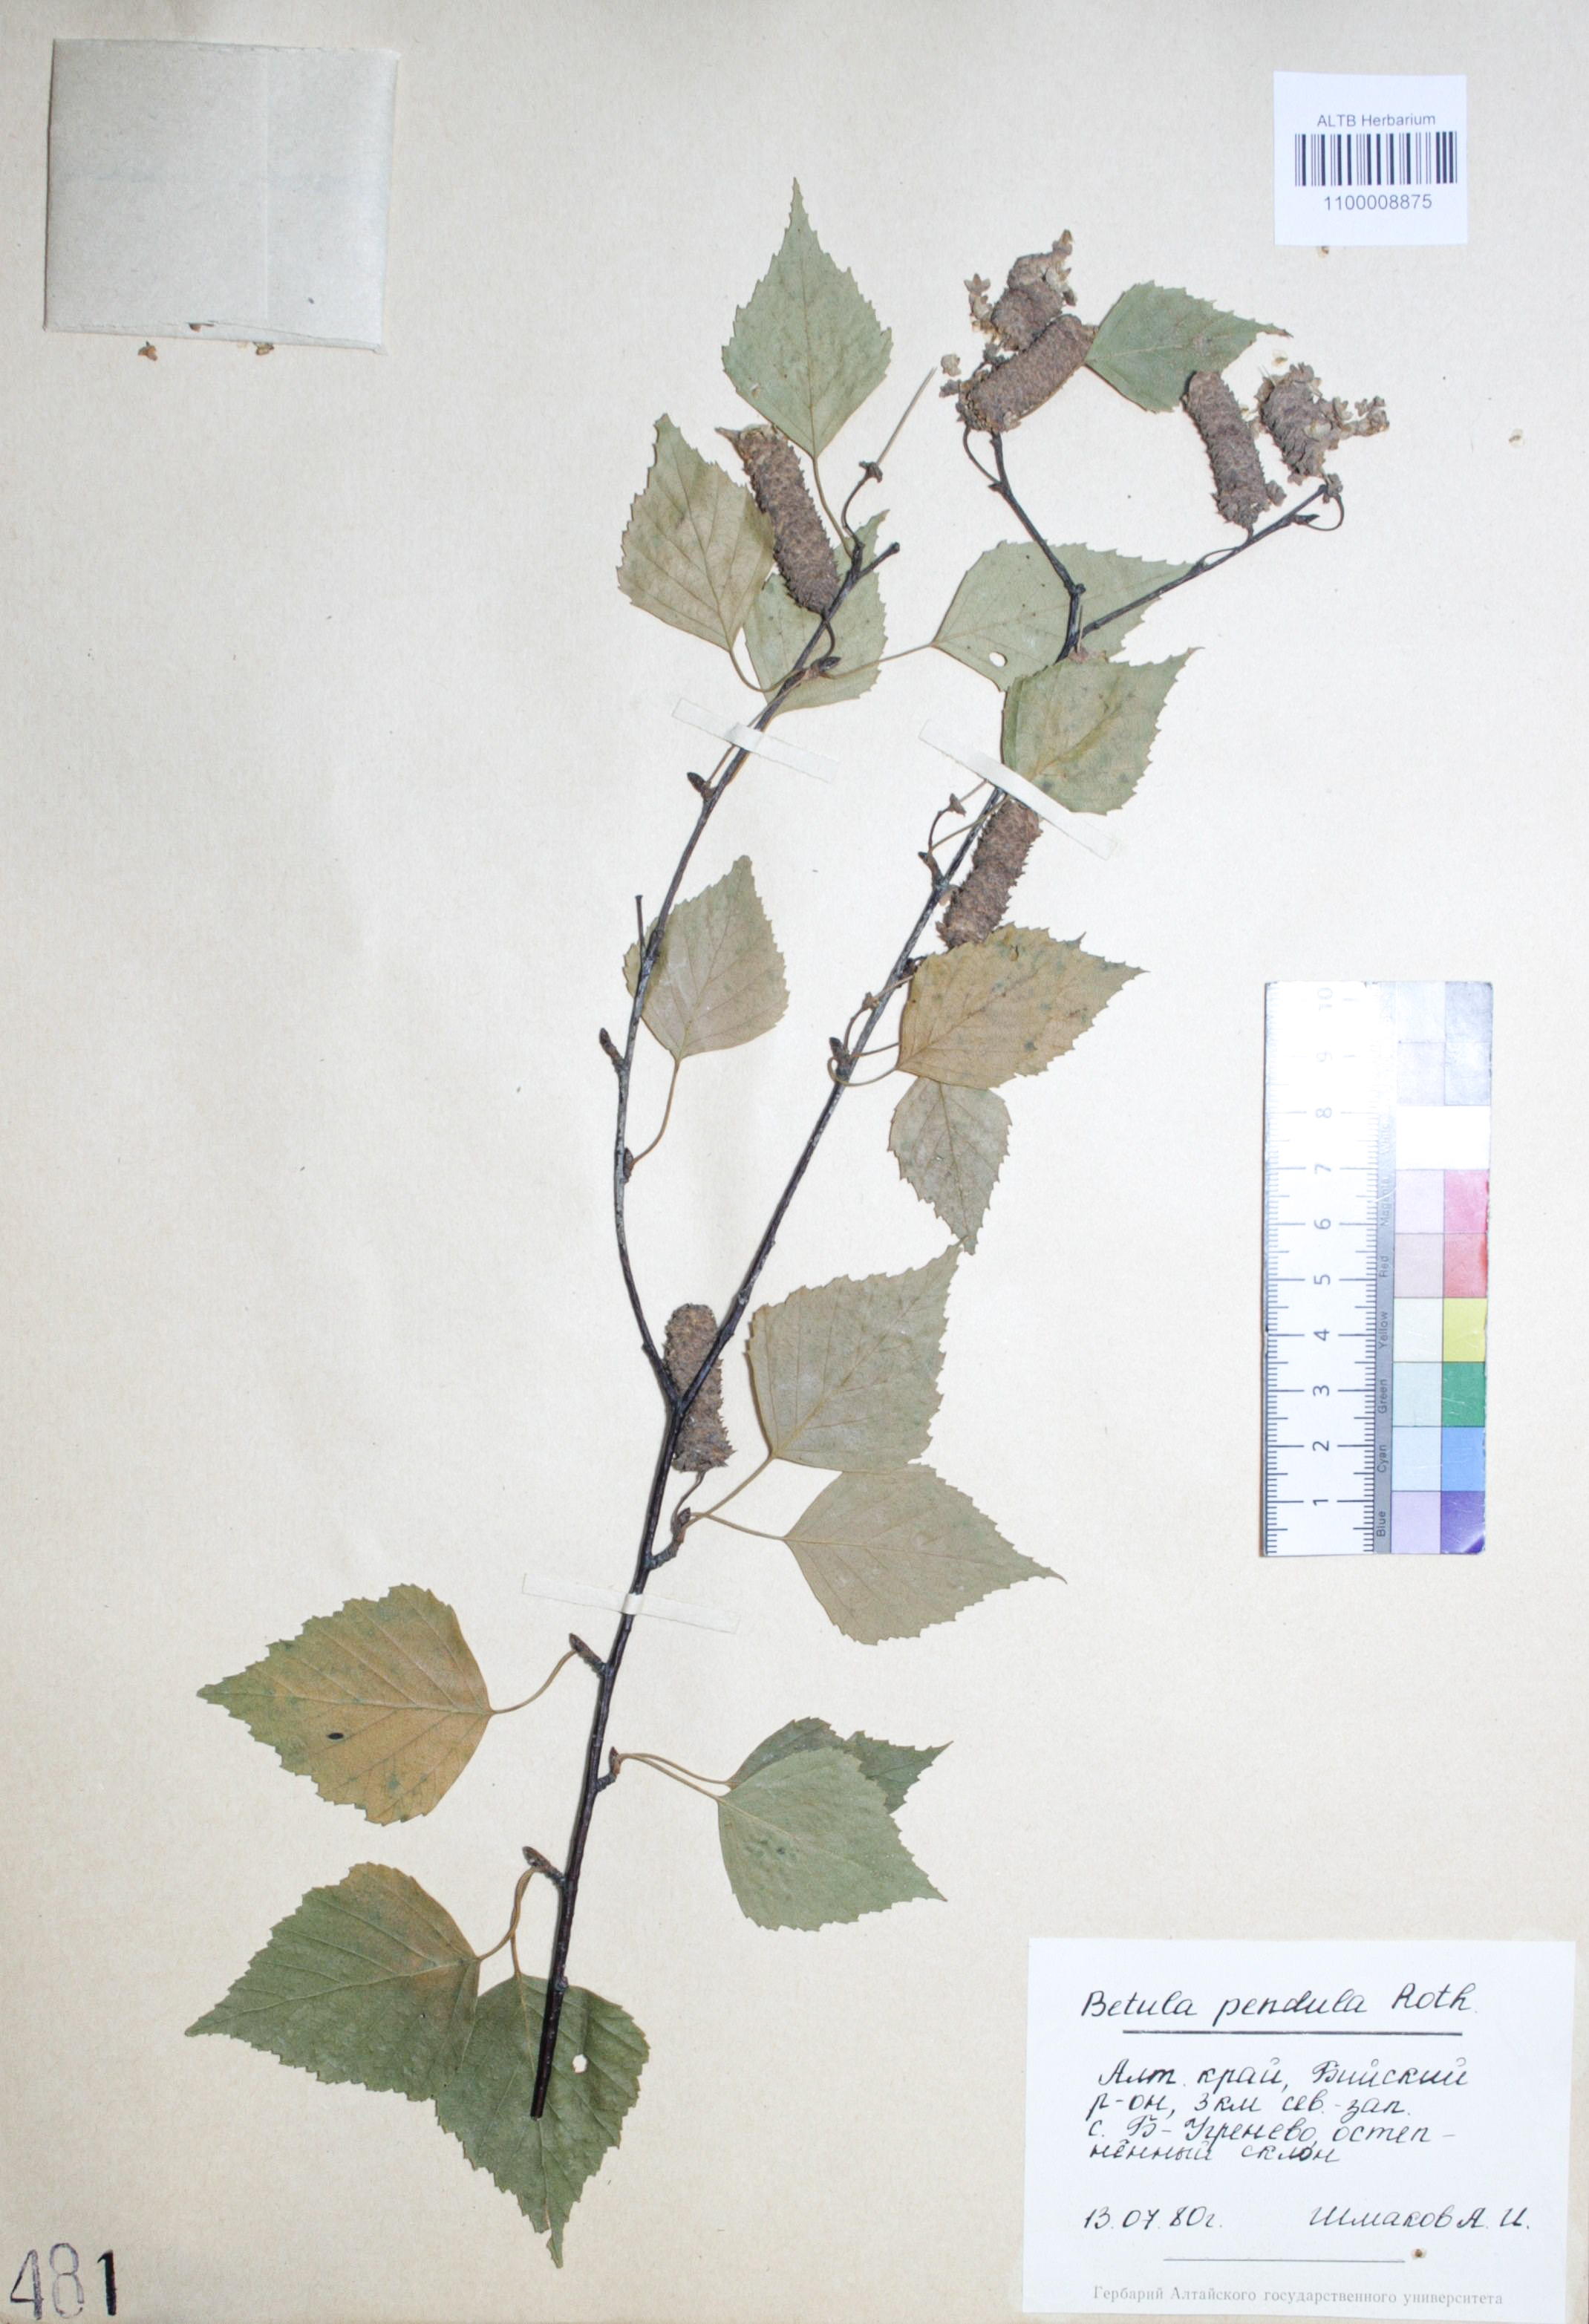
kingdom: Plantae
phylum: Tracheophyta
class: Magnoliopsida
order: Fagales
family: Betulaceae
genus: Betula
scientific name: Betula pendula
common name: Silver birch
